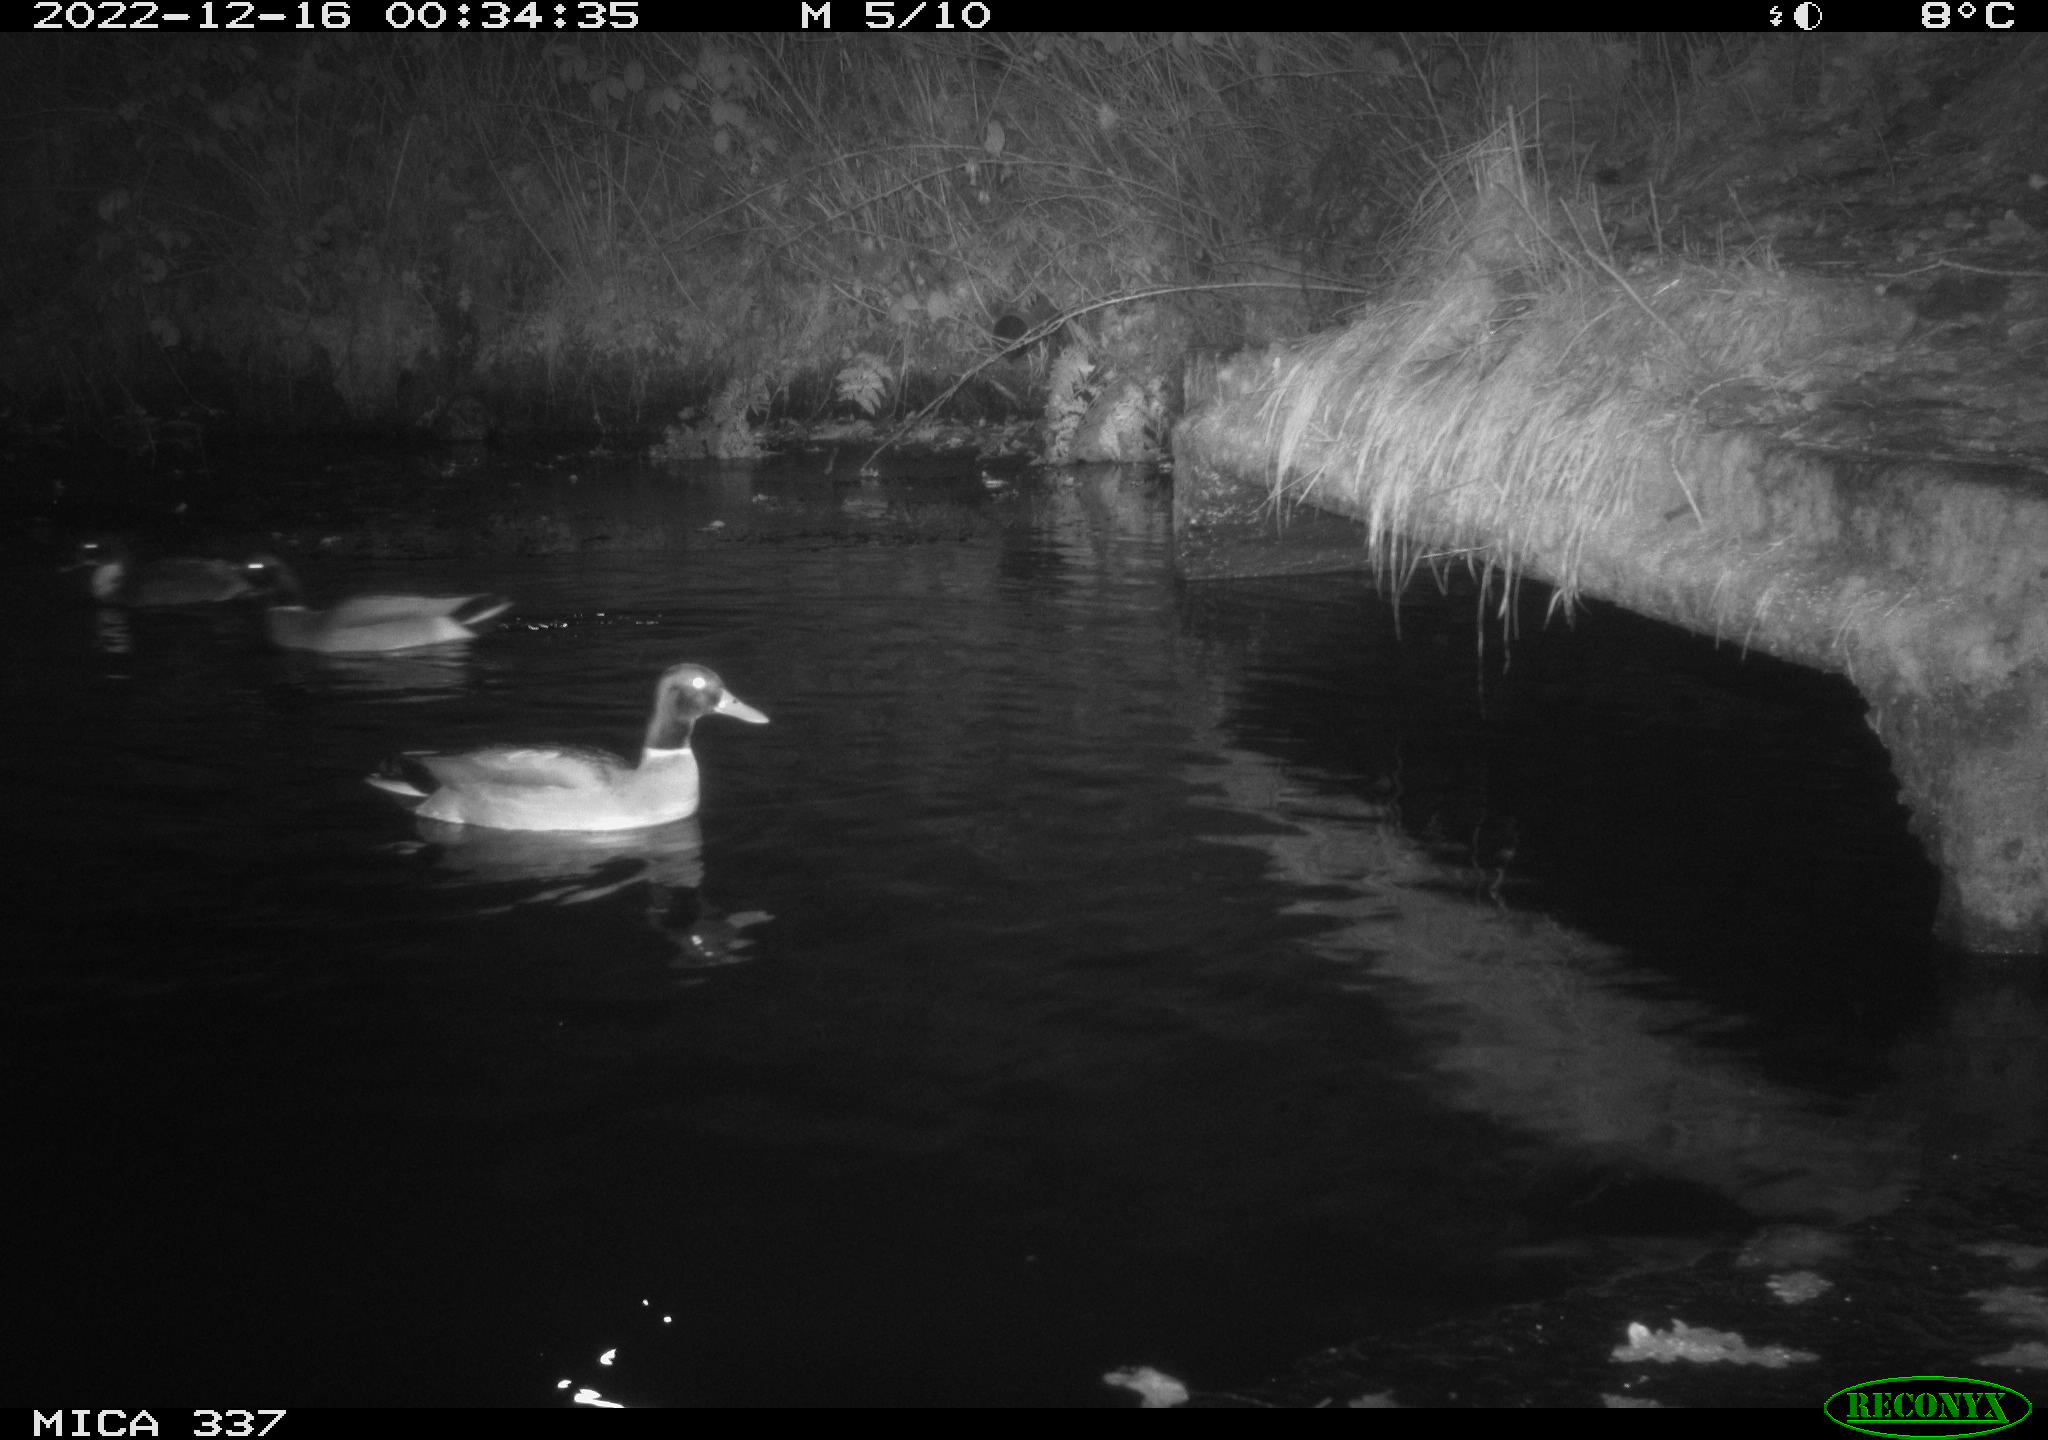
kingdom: Animalia
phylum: Chordata
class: Aves
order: Anseriformes
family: Anatidae
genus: Anas
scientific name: Anas
